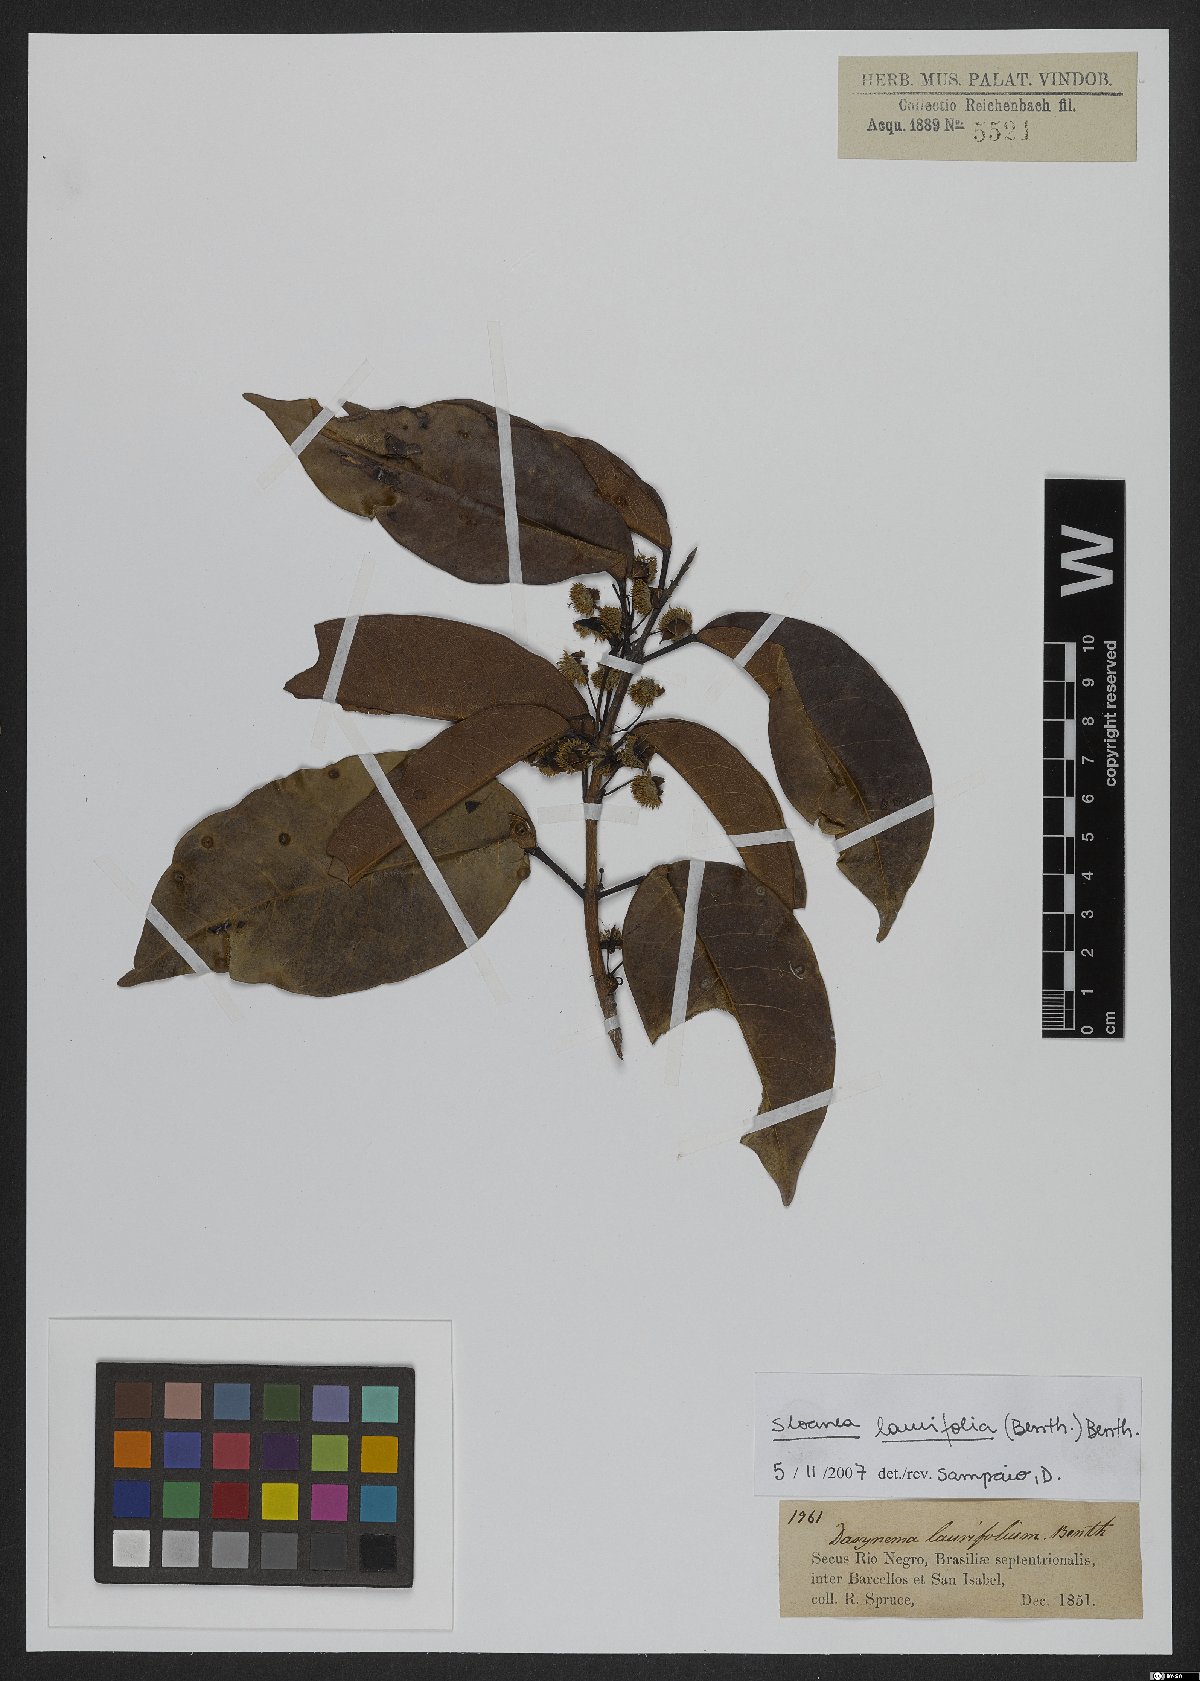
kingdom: Plantae
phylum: Tracheophyta
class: Magnoliopsida
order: Oxalidales
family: Elaeocarpaceae
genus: Sloanea
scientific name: Sloanea laurifolia
